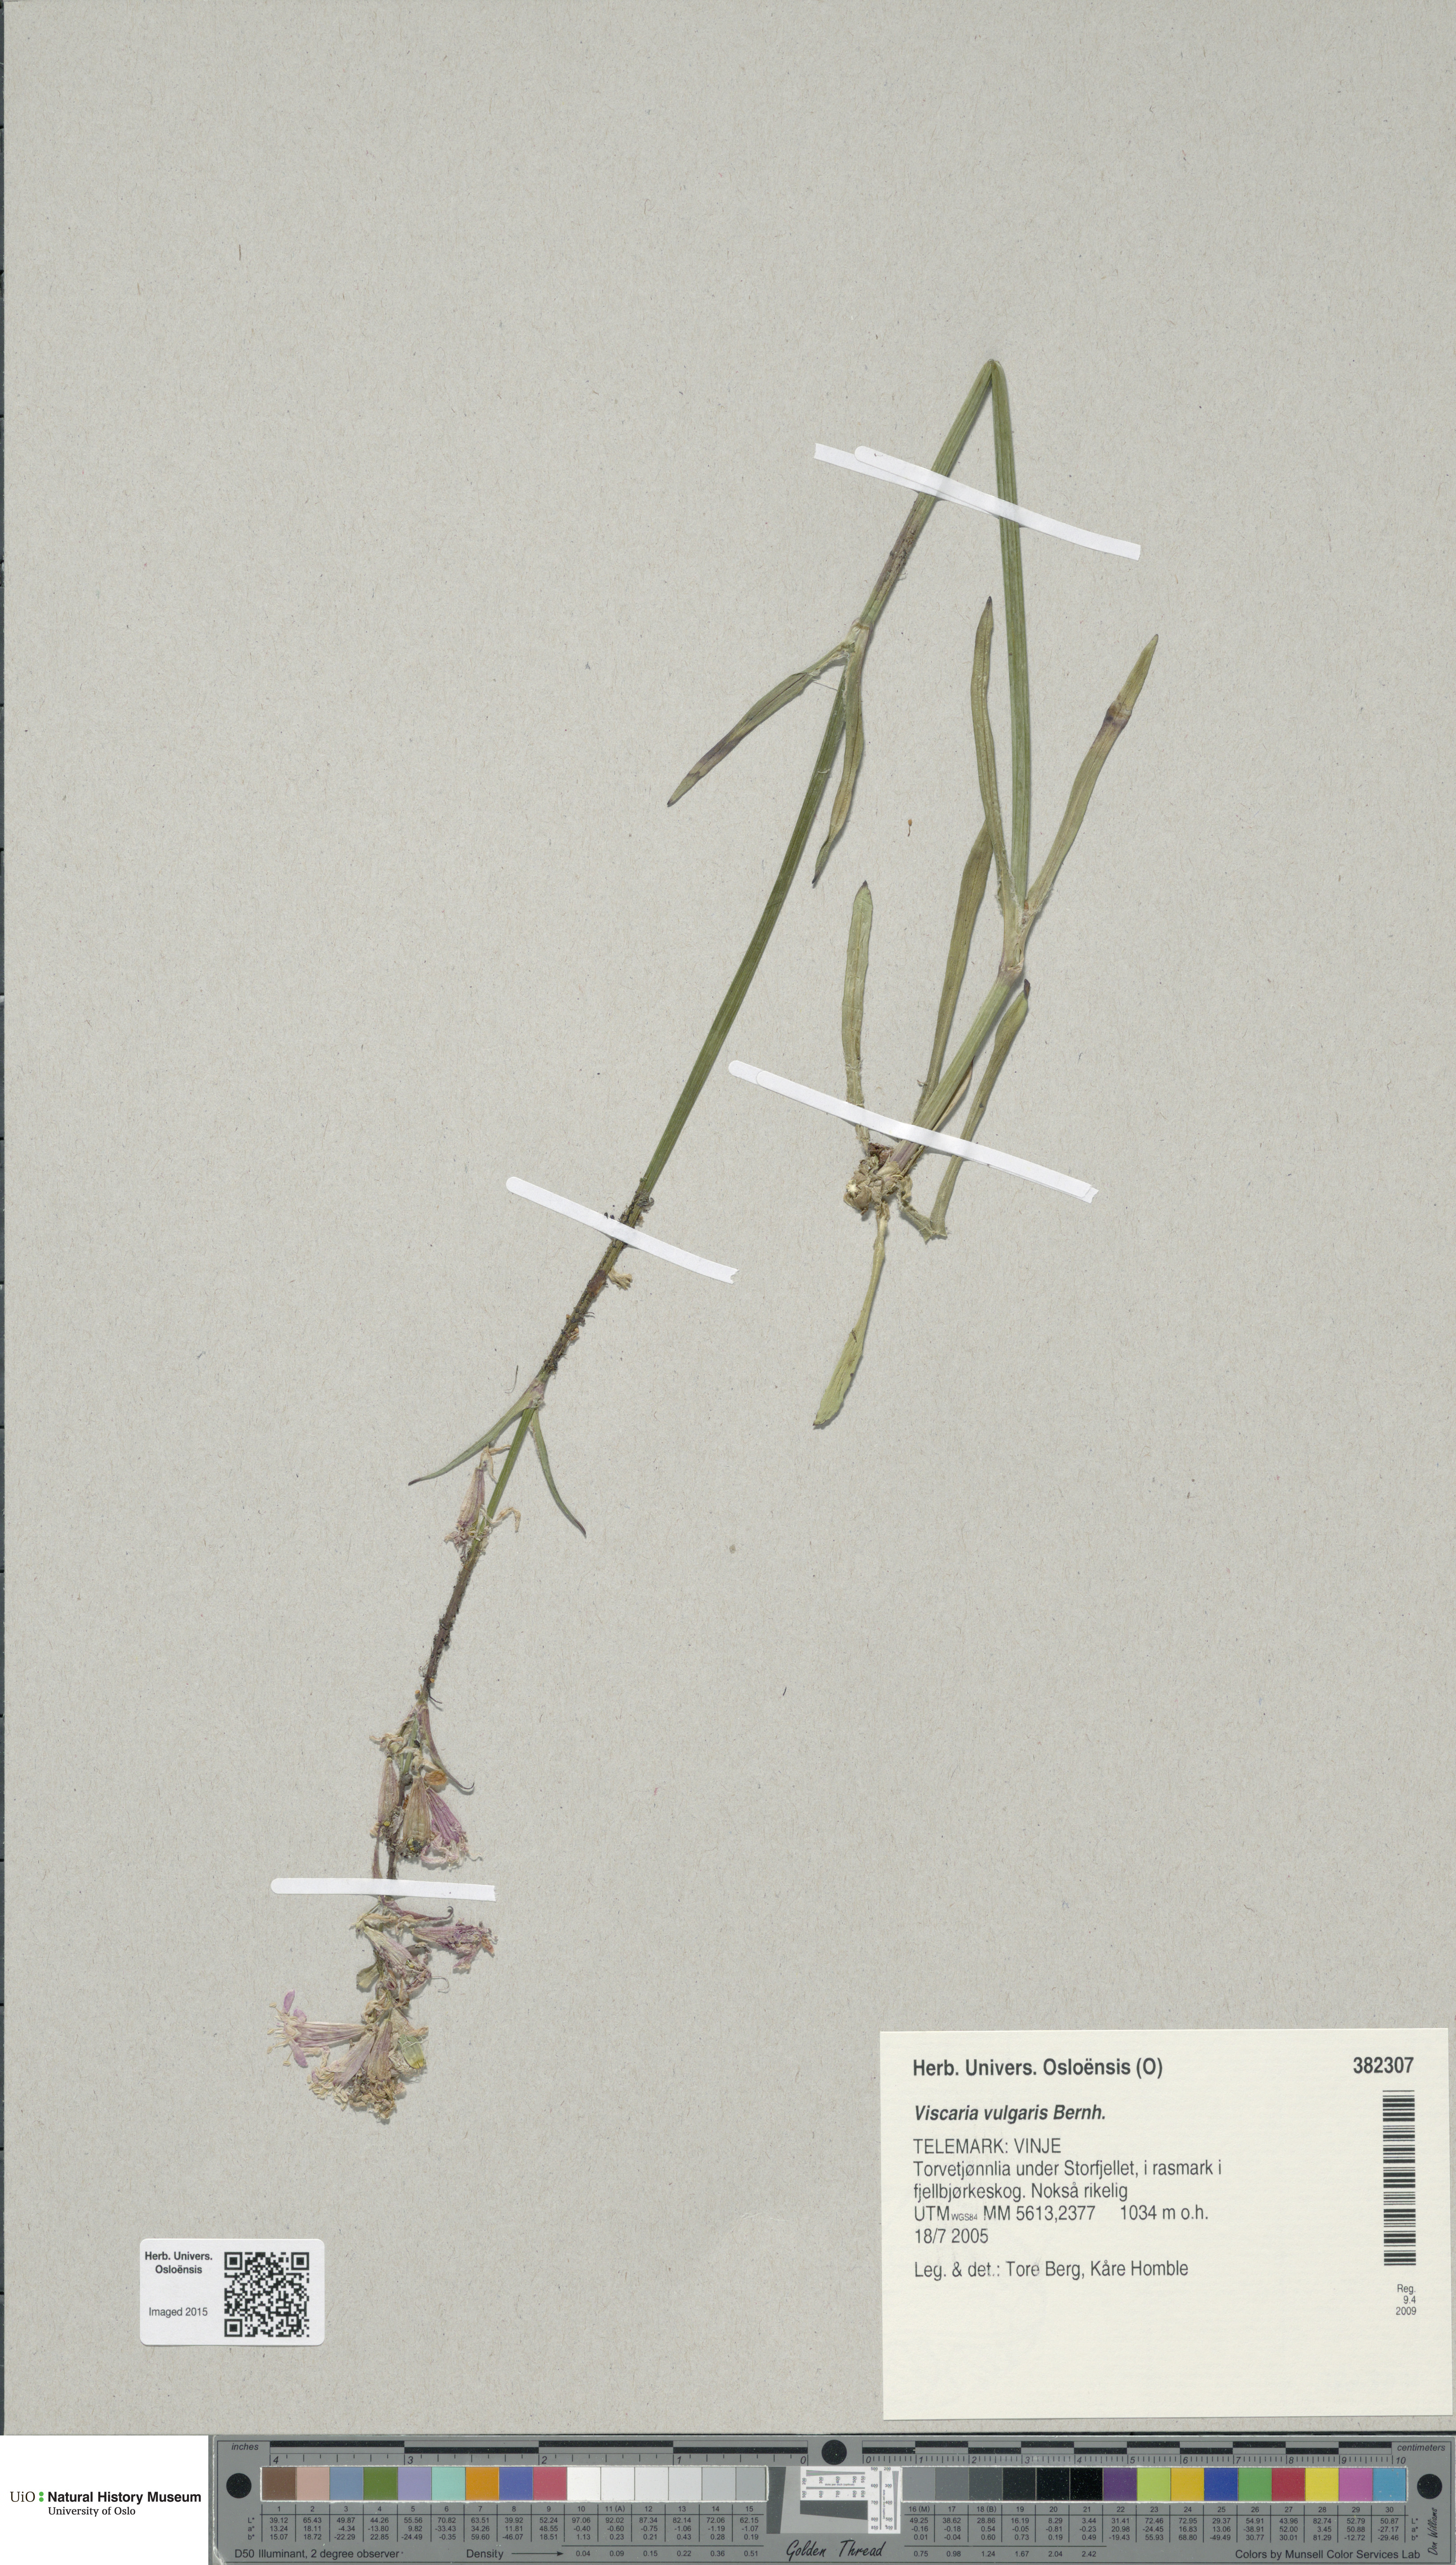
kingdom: Plantae
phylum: Tracheophyta
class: Magnoliopsida
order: Caryophyllales
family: Caryophyllaceae
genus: Viscaria
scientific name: Viscaria vulgaris
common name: Clammy campion
